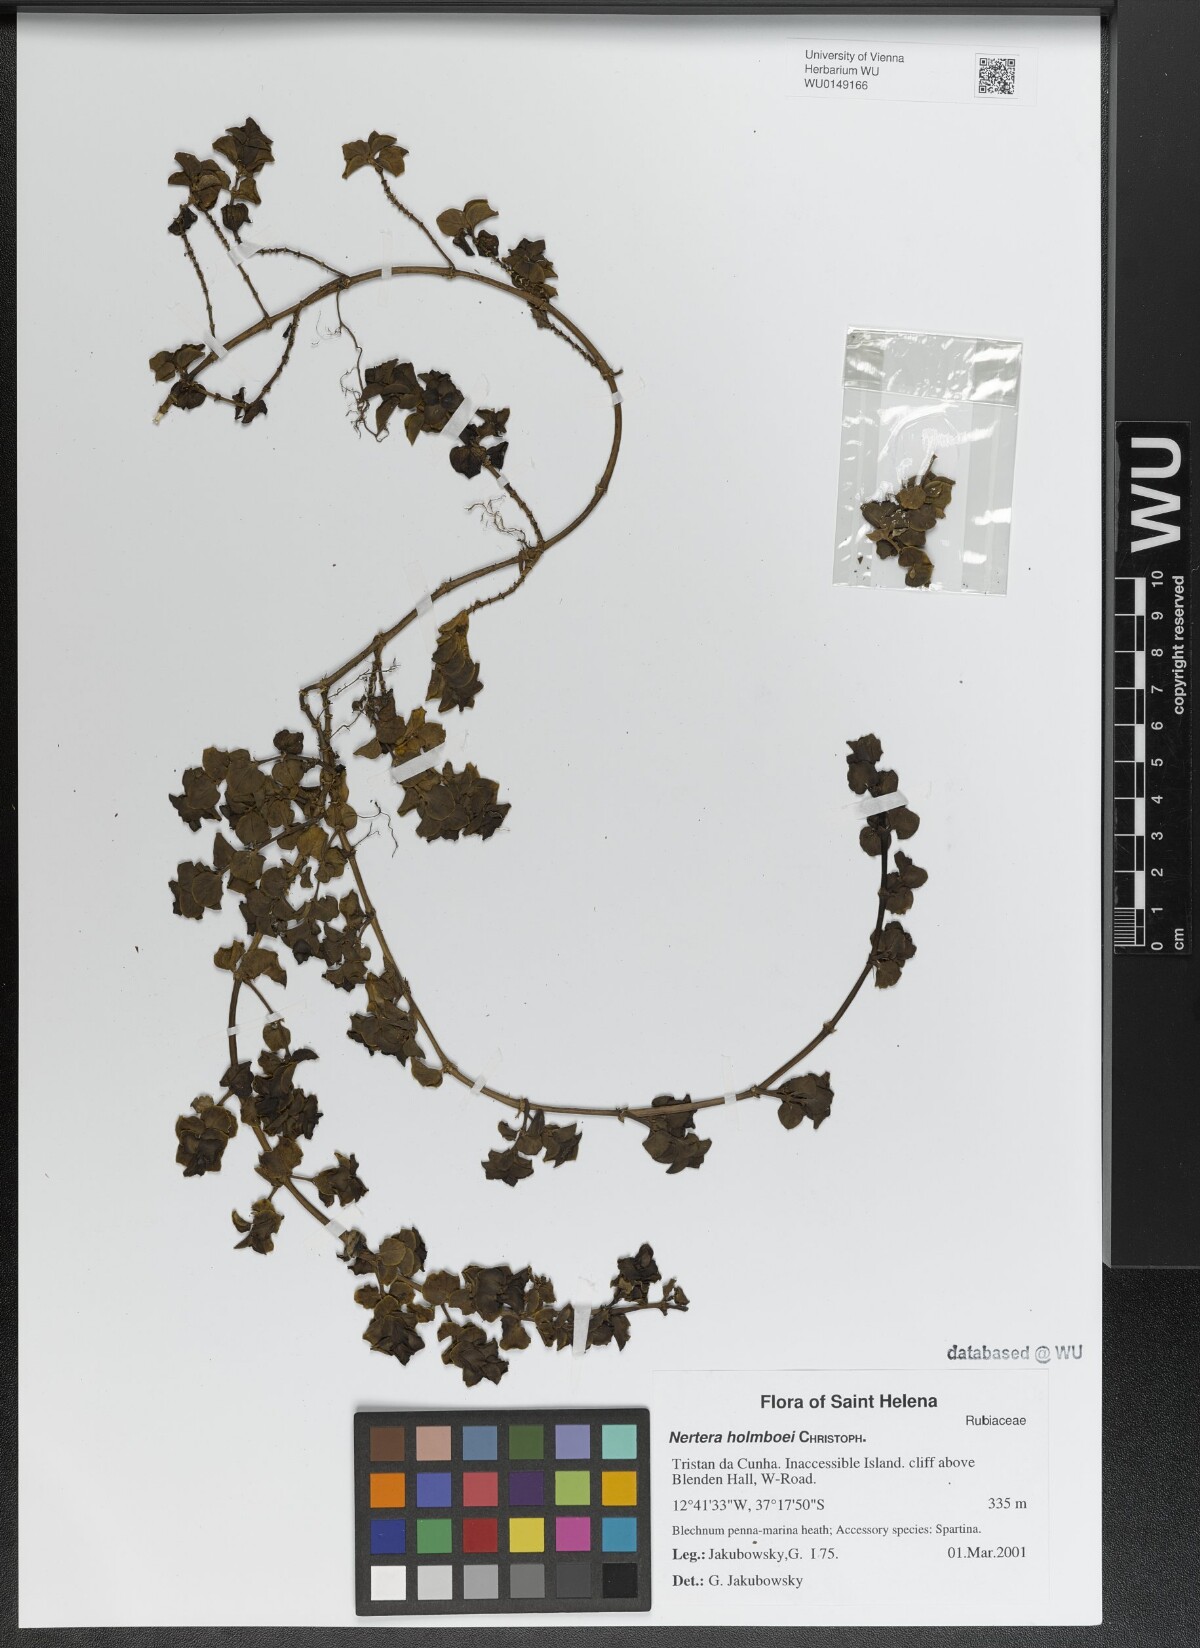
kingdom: Plantae
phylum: Tracheophyta
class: Magnoliopsida
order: Gentianales
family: Rubiaceae
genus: Nertera
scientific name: Nertera holmboei
